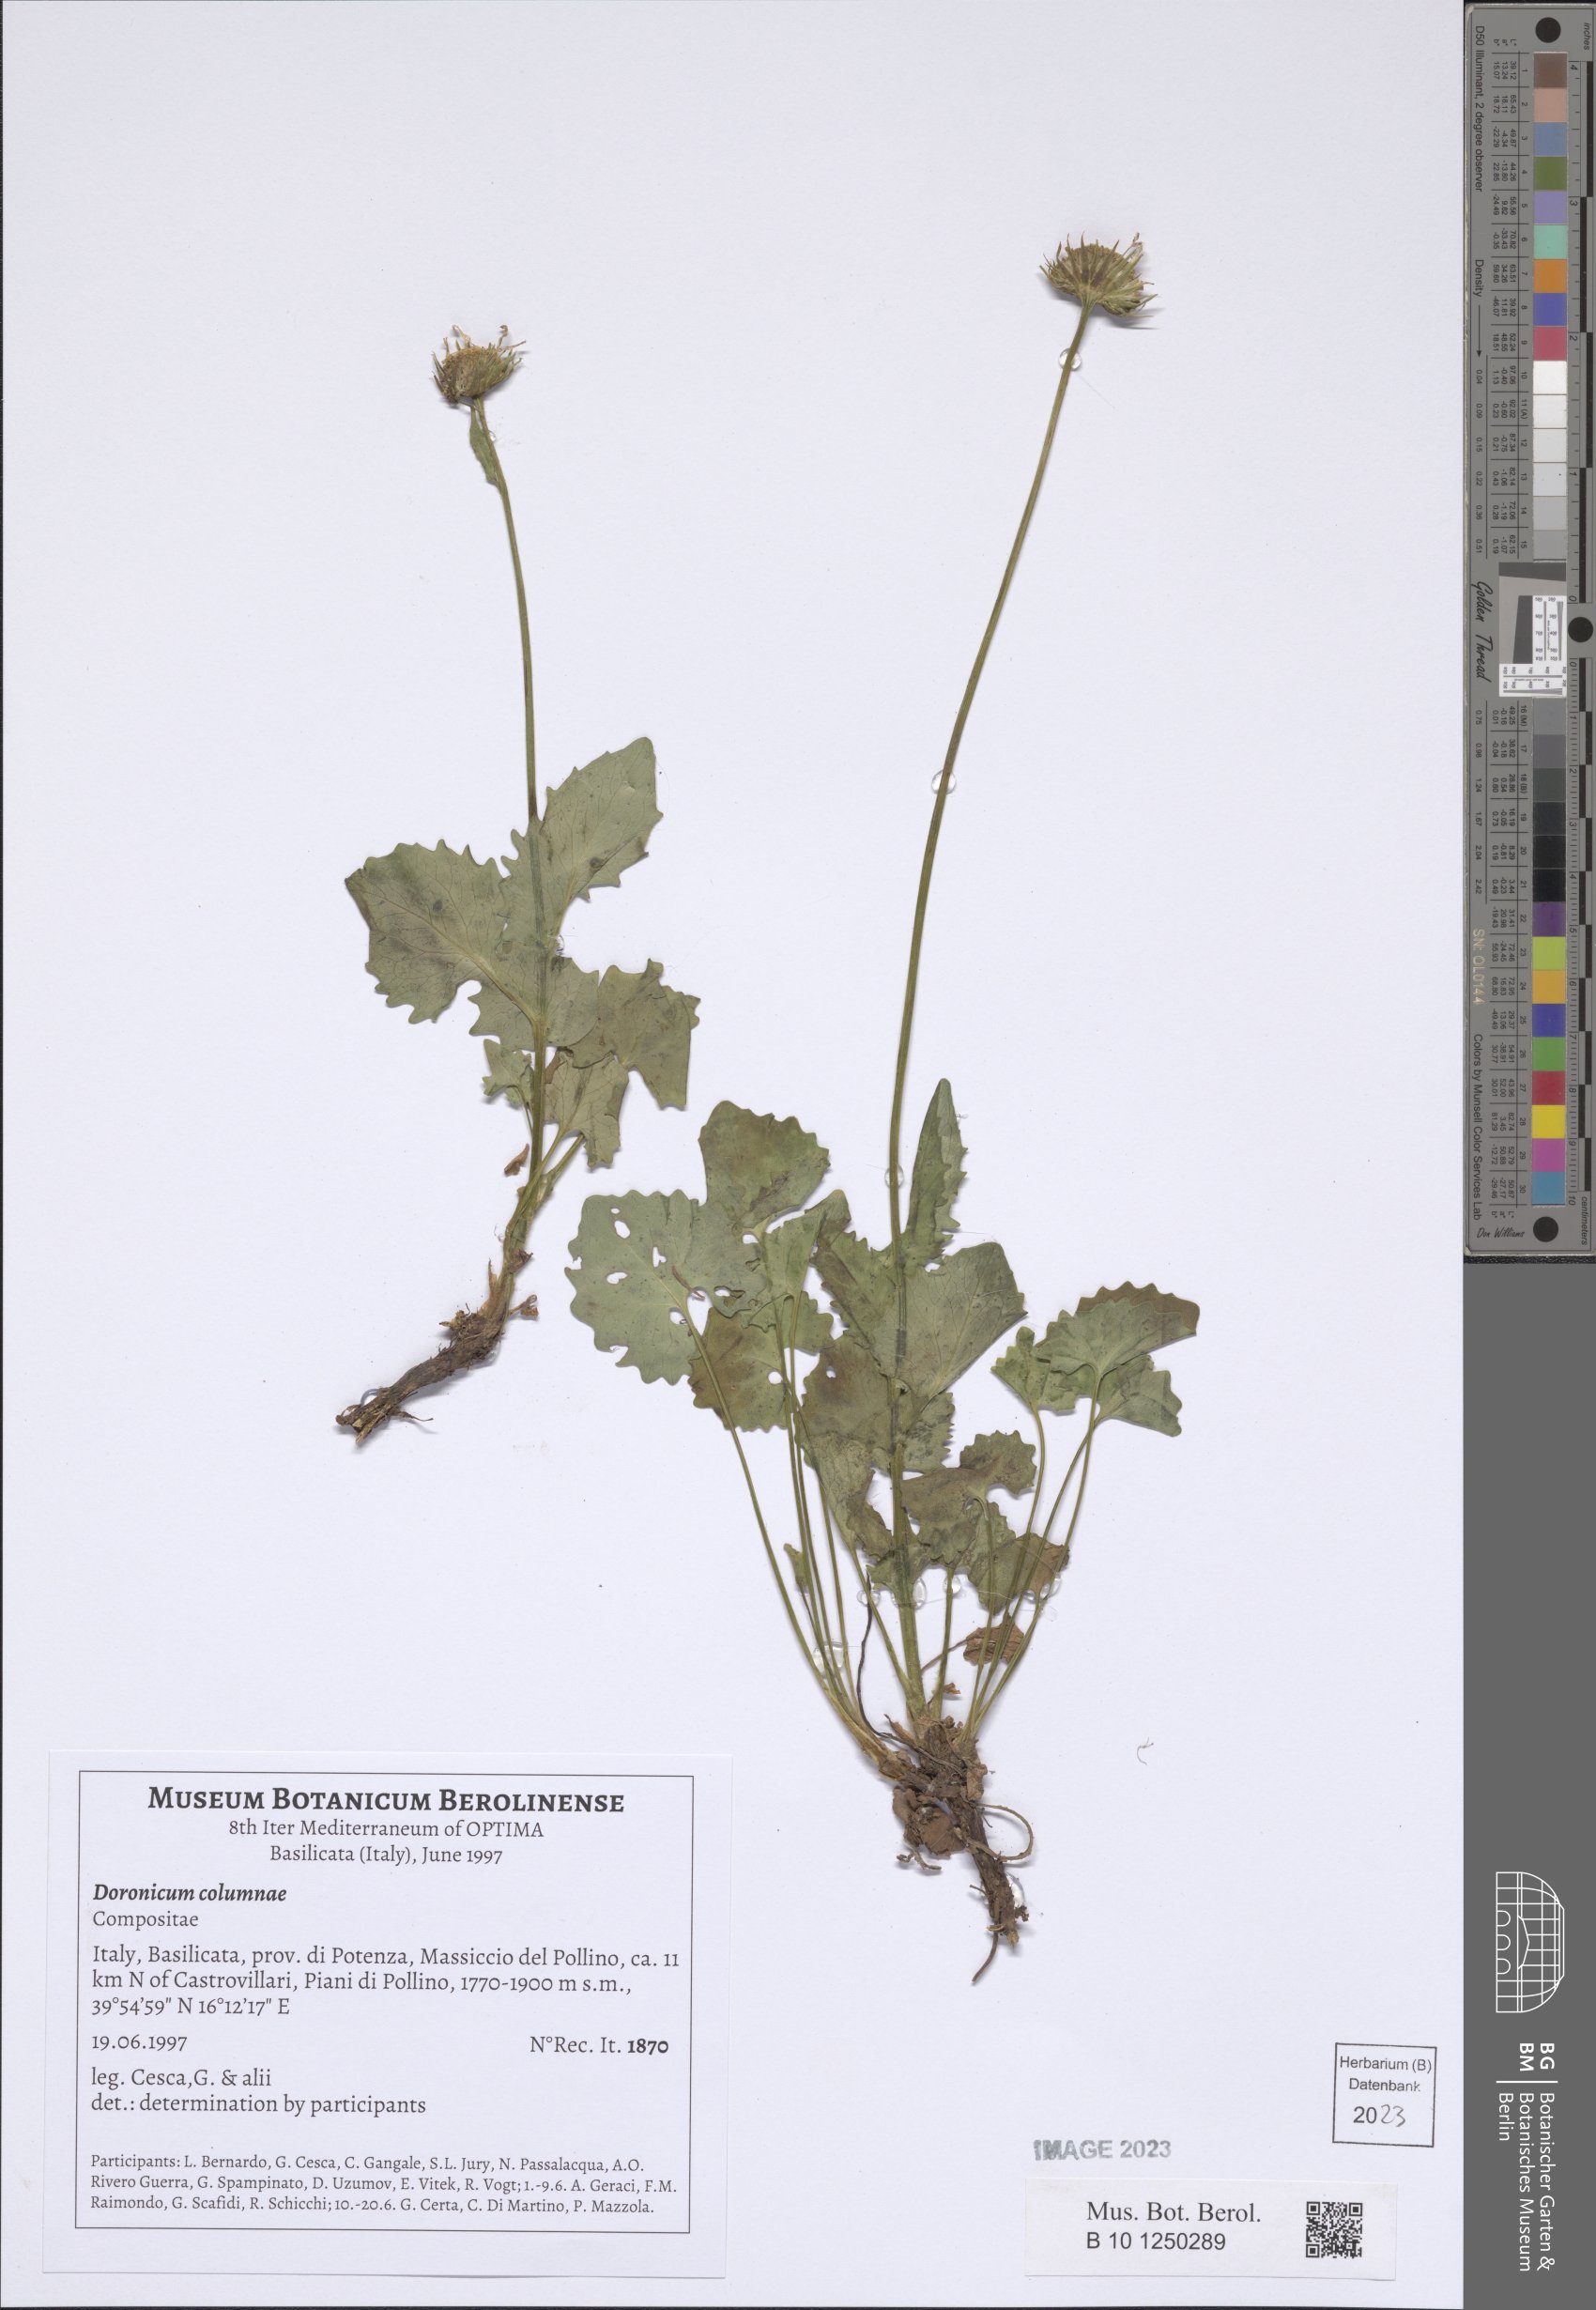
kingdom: Plantae
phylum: Tracheophyta
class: Magnoliopsida
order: Asterales
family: Asteraceae
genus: Doronicum
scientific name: Doronicum columnae
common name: Eastern leopard's-bane
